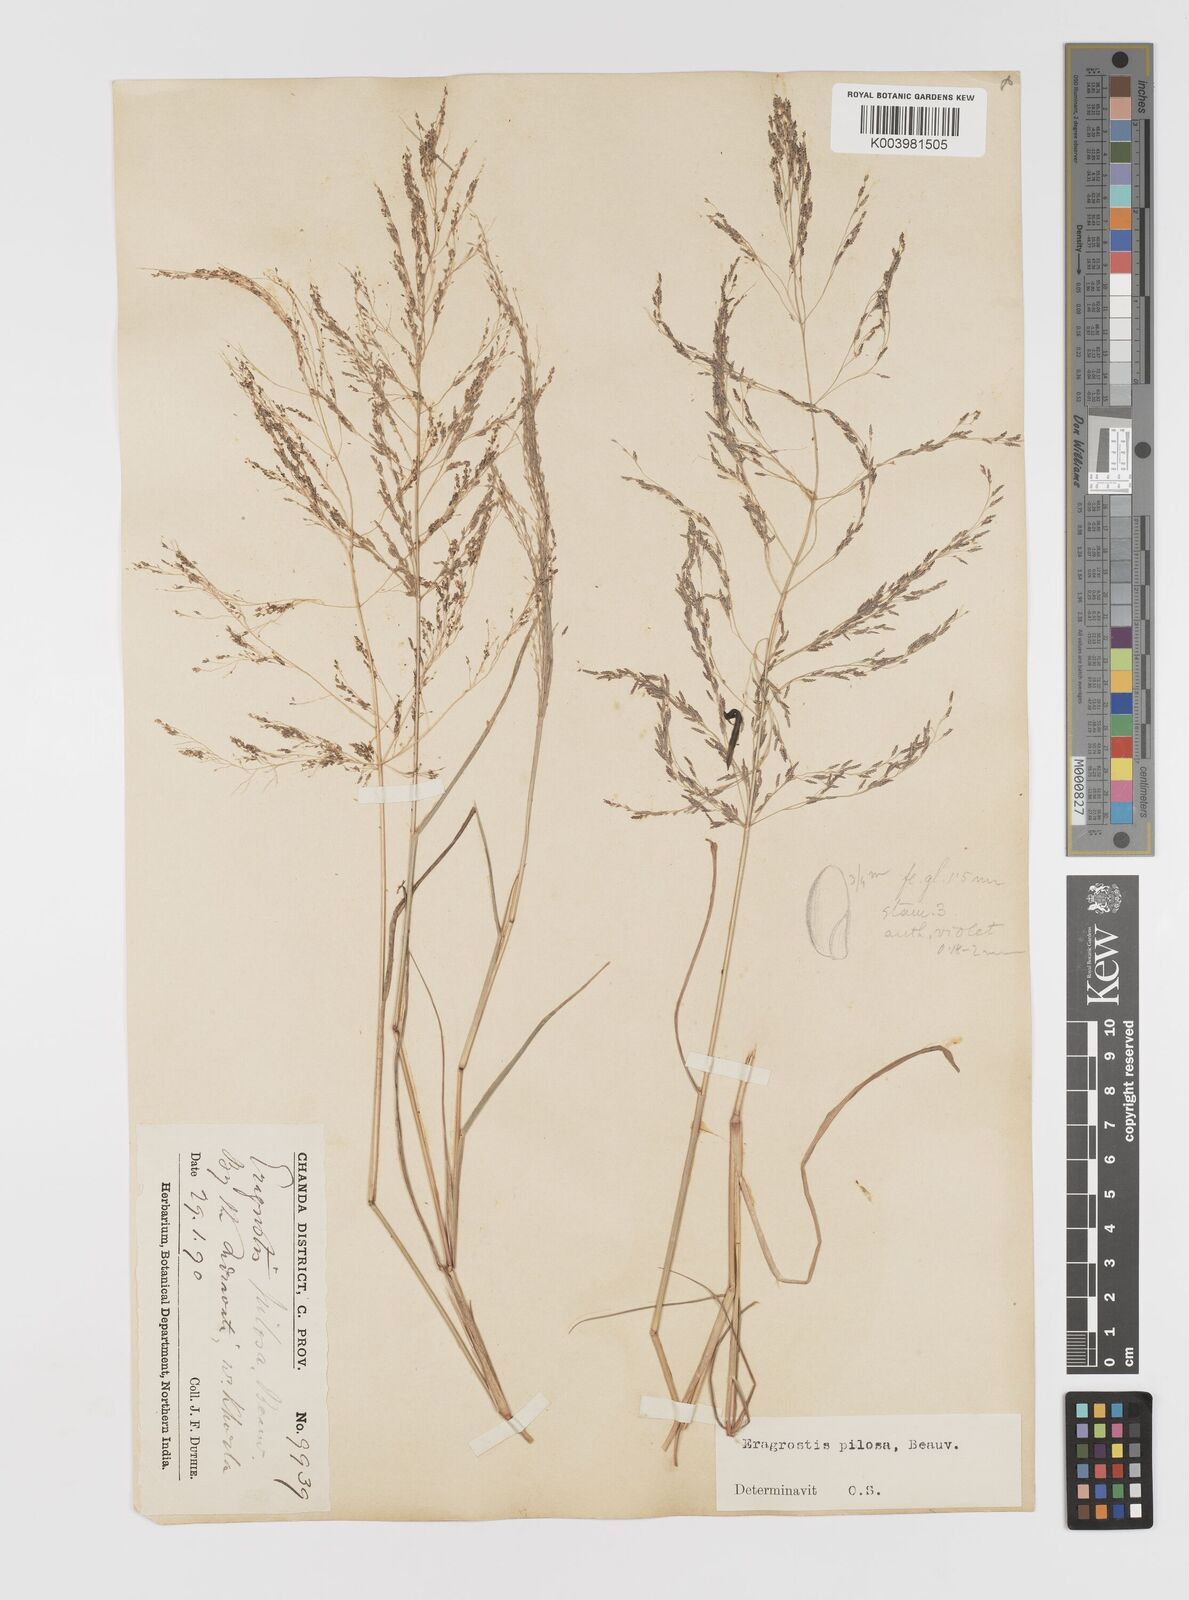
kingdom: Plantae
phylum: Tracheophyta
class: Liliopsida
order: Poales
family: Poaceae
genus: Eragrostis
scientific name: Eragrostis pilosa
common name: Indian lovegrass
